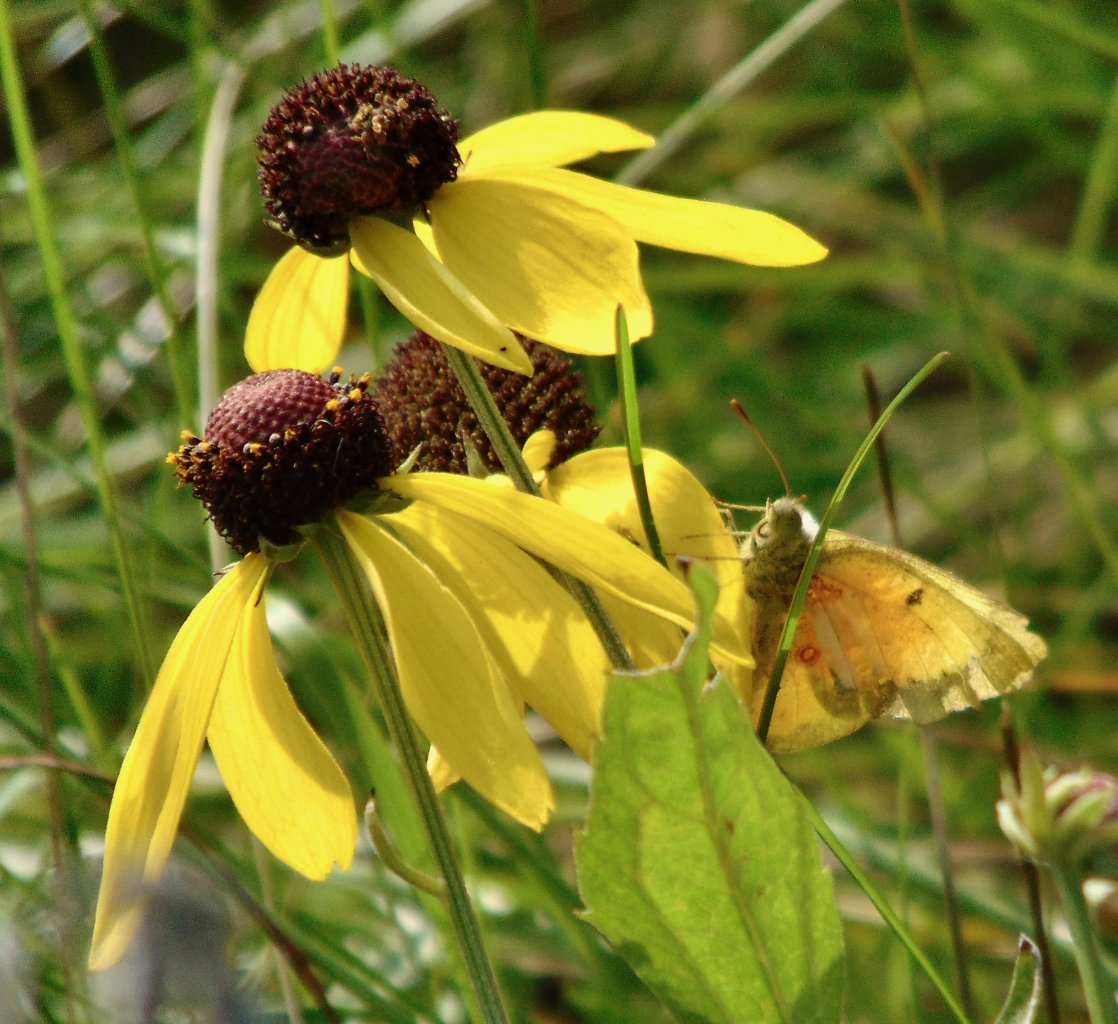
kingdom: Animalia
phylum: Arthropoda
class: Insecta
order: Lepidoptera
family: Pieridae
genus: Colias
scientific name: Colias eurytheme
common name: Orange Sulphur
